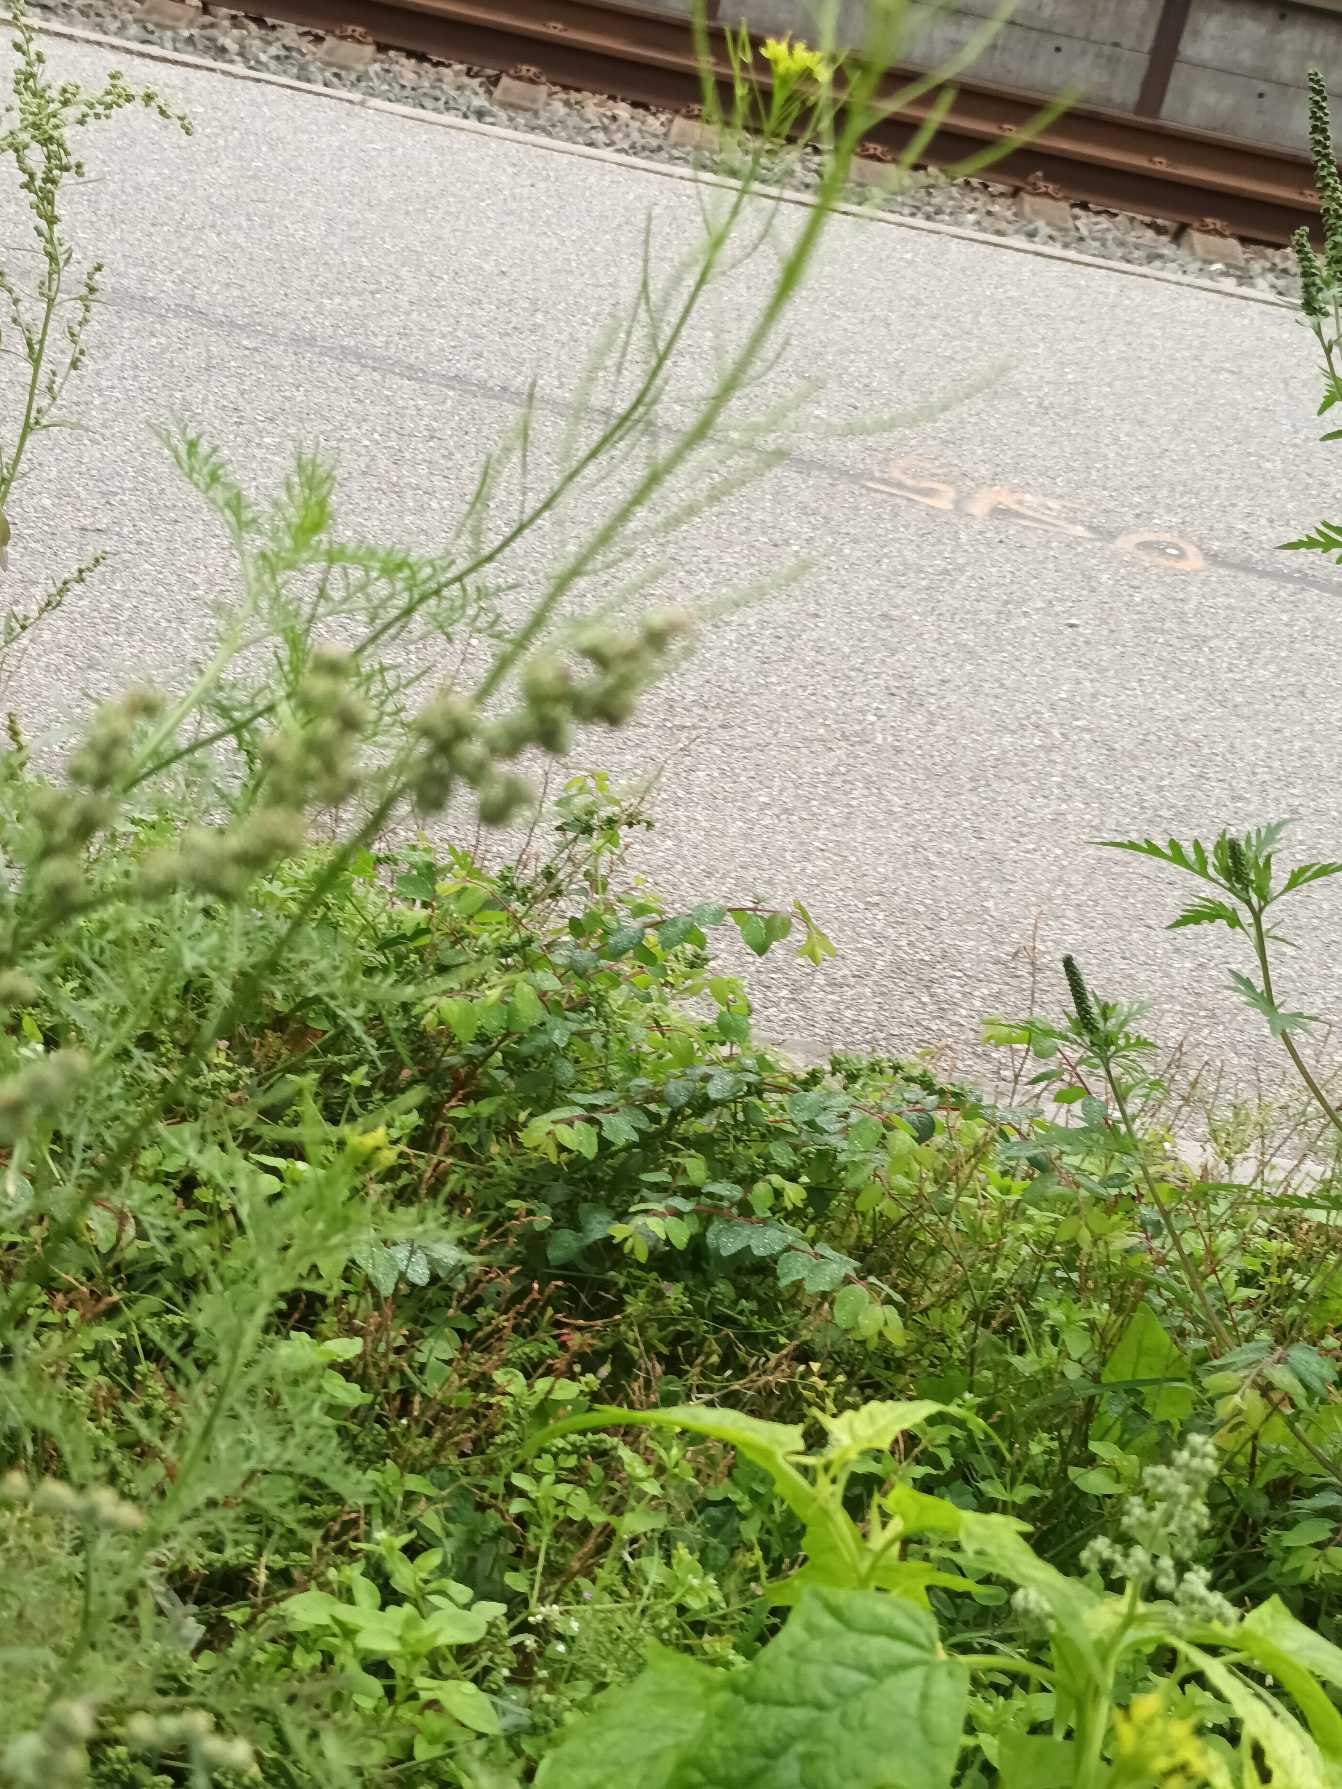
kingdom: Plantae
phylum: Tracheophyta
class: Magnoliopsida
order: Brassicales
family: Brassicaceae
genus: Descurainia
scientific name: Descurainia sophia
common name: Finbladet vejsennep
